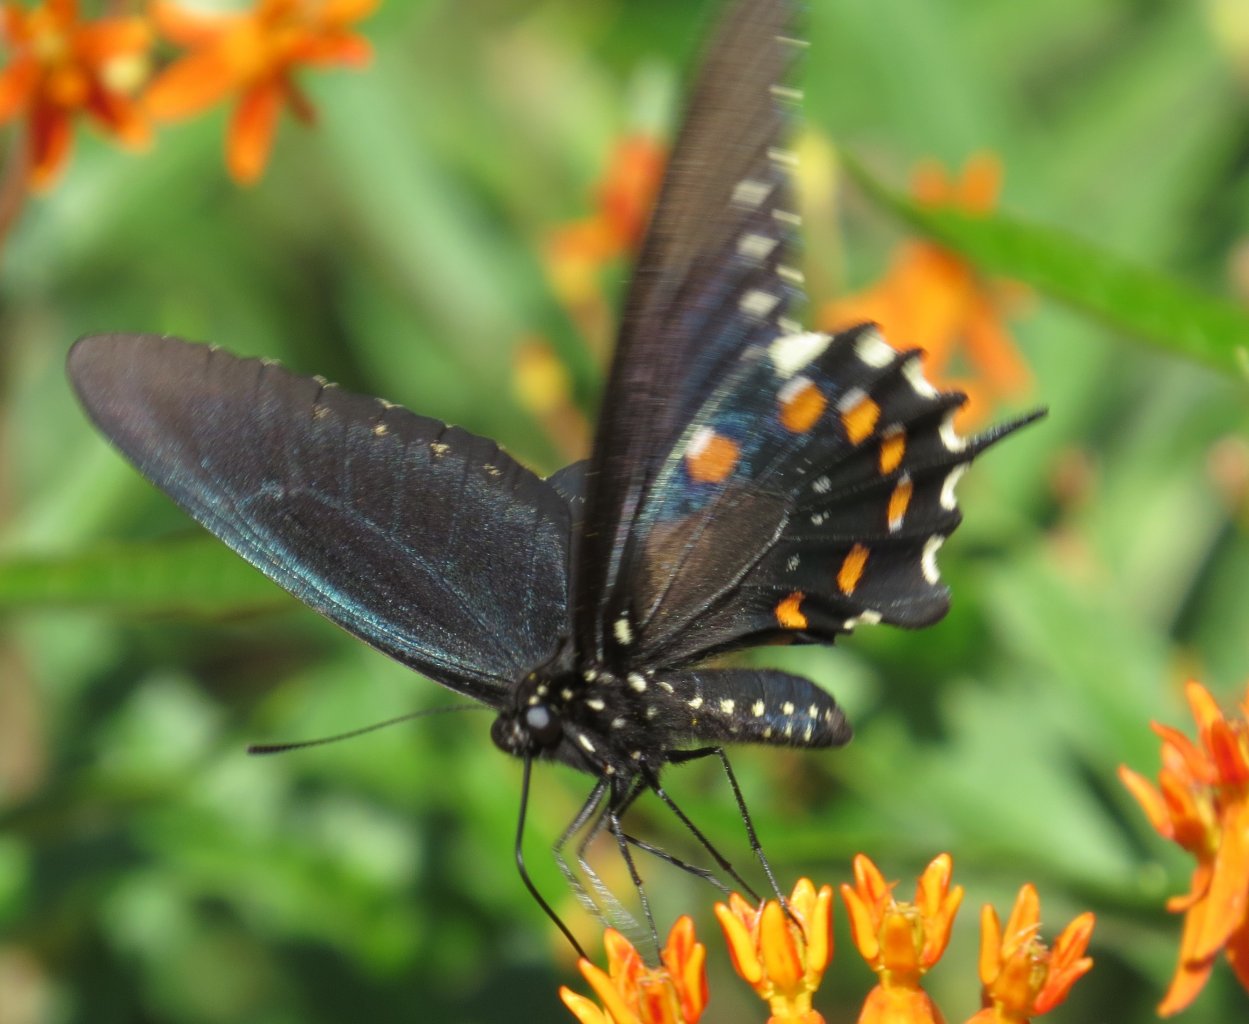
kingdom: Animalia
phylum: Arthropoda
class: Insecta
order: Lepidoptera
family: Papilionidae
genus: Battus
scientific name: Battus philenor
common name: Pipevine Swallowtail
